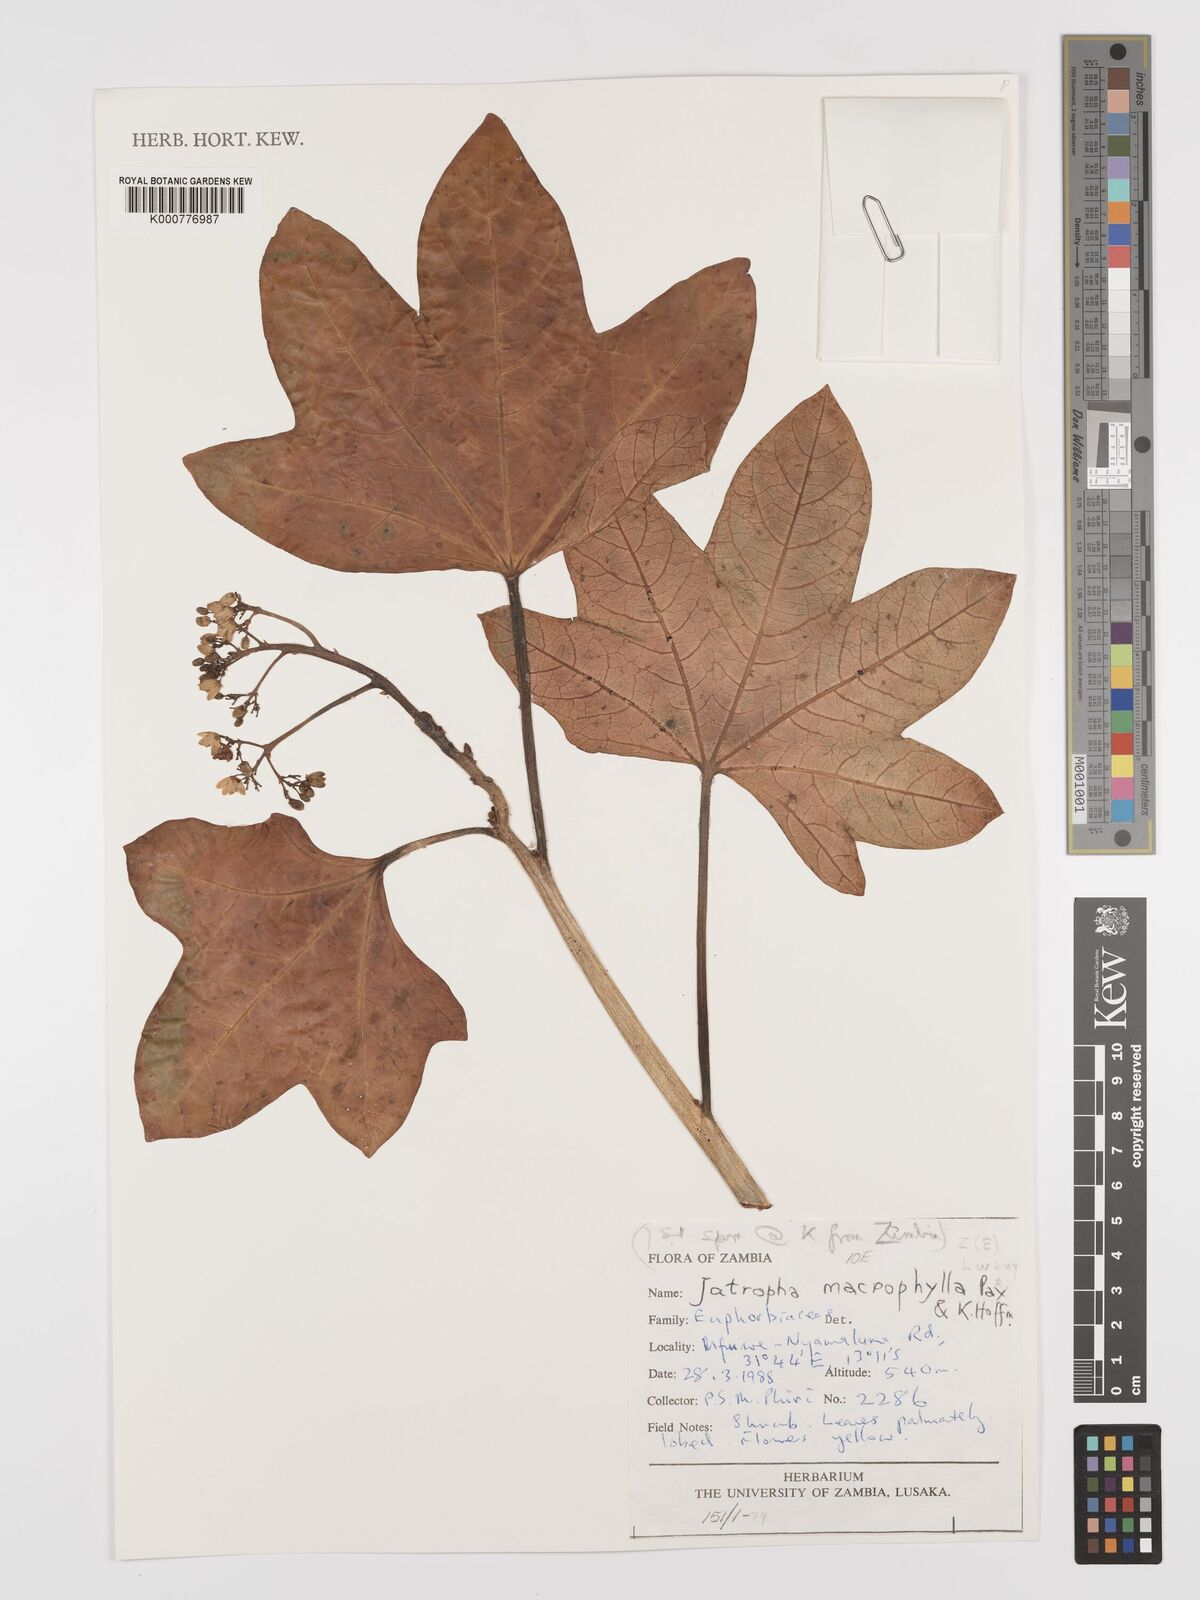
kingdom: Plantae
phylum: Tracheophyta
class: Magnoliopsida
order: Malpighiales
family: Euphorbiaceae
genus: Jatropha
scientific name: Jatropha macrophylla
